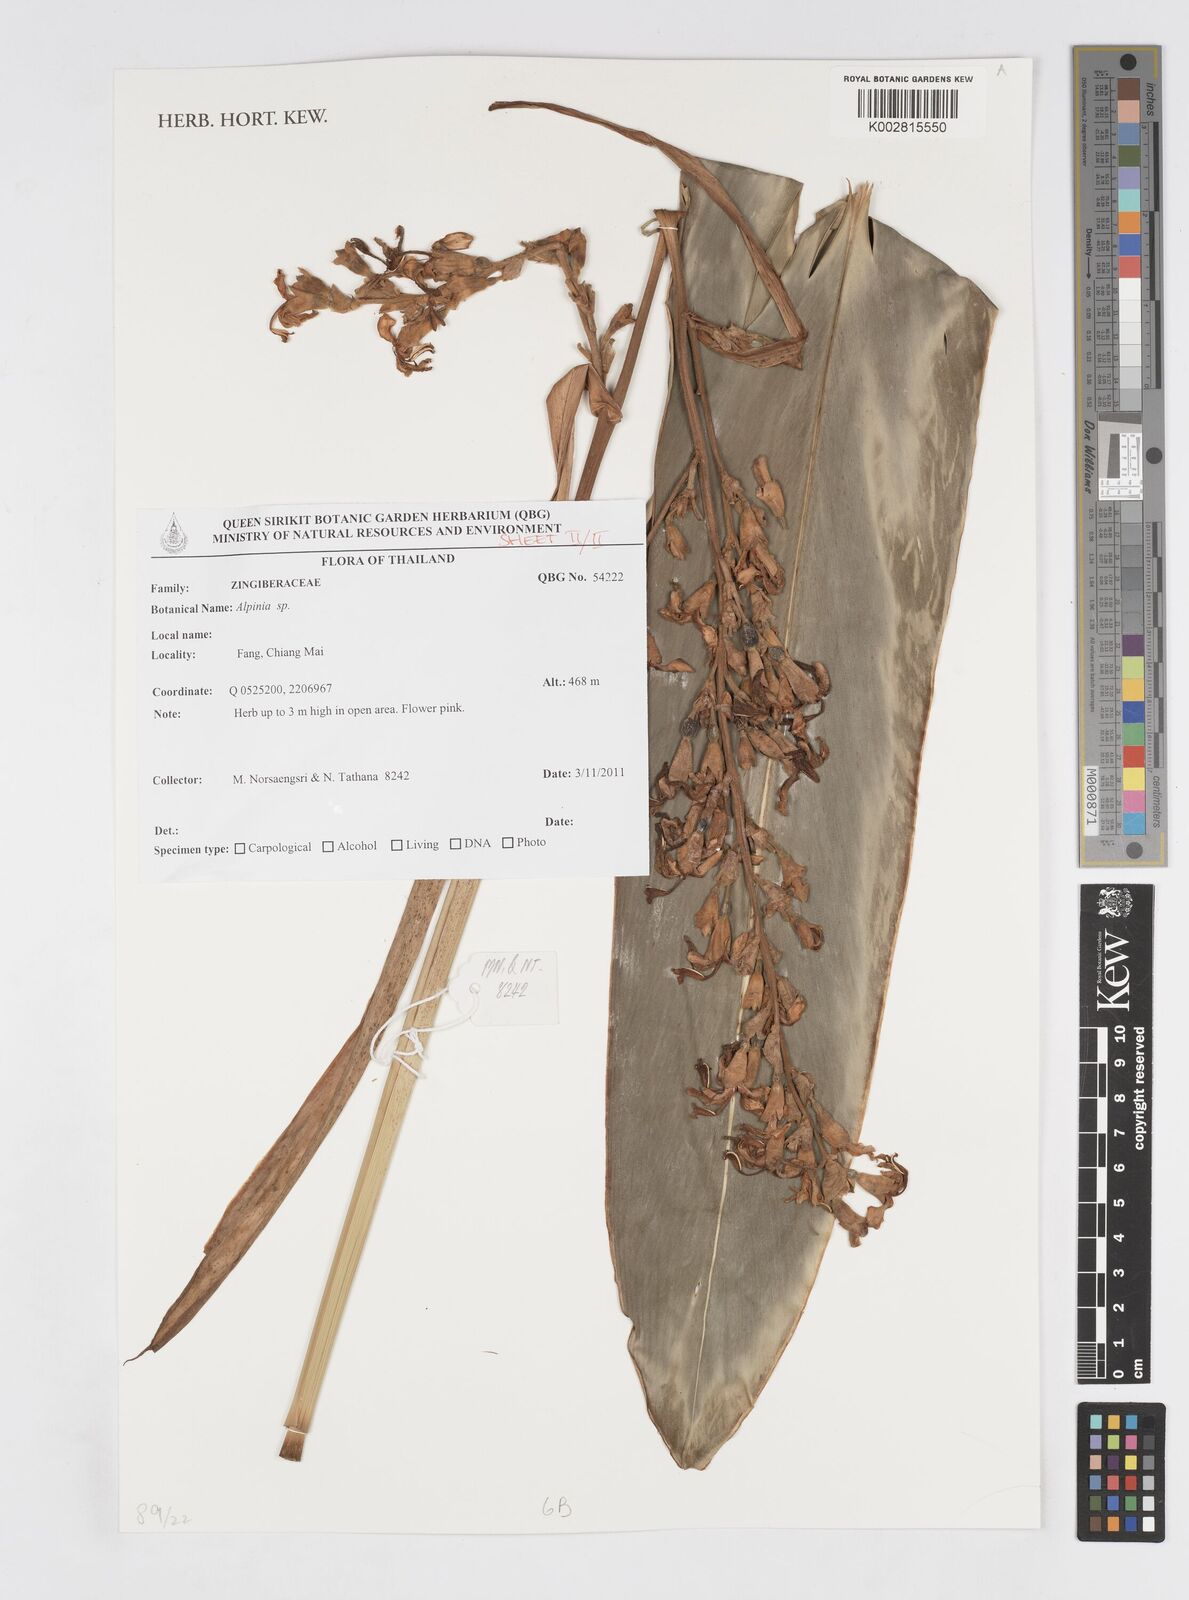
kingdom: Plantae
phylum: Tracheophyta
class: Liliopsida
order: Zingiberales
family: Zingiberaceae
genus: Alpinia
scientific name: Alpinia
